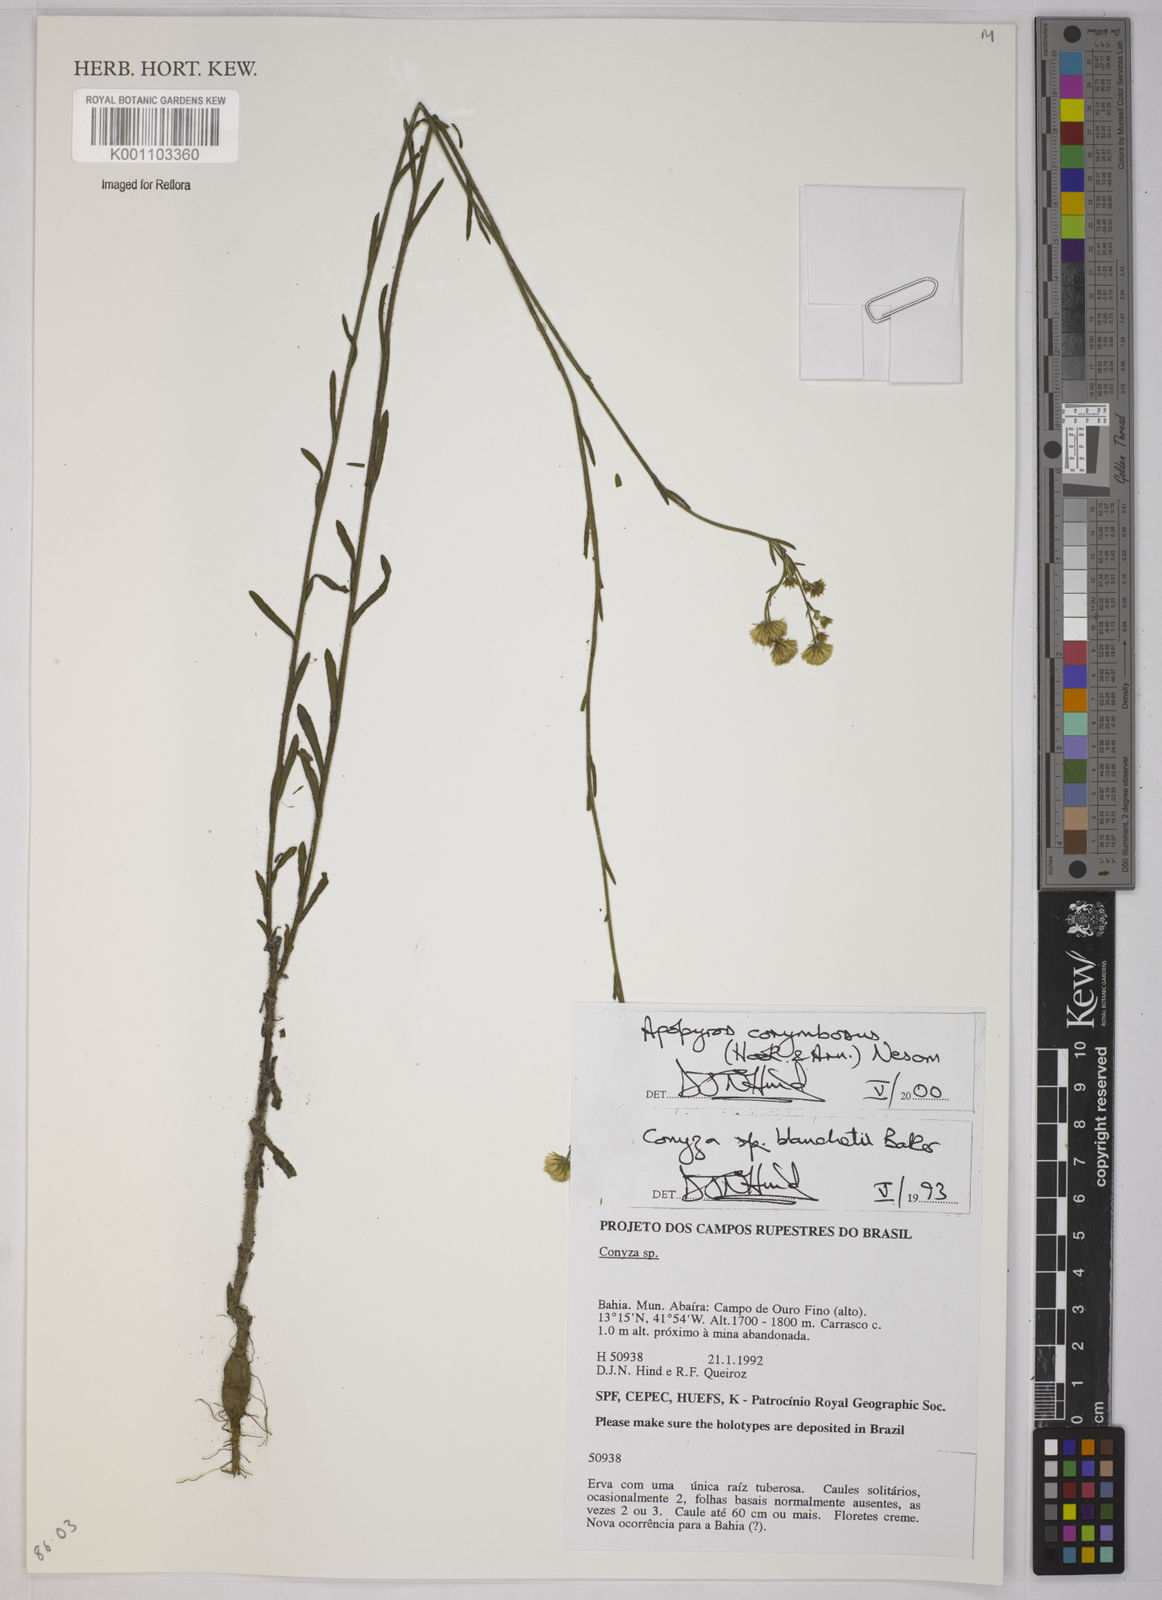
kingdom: Plantae
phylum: Tracheophyta
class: Magnoliopsida
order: Asterales
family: Asteraceae
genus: Apopyros
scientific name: Apopyros corymbosus
